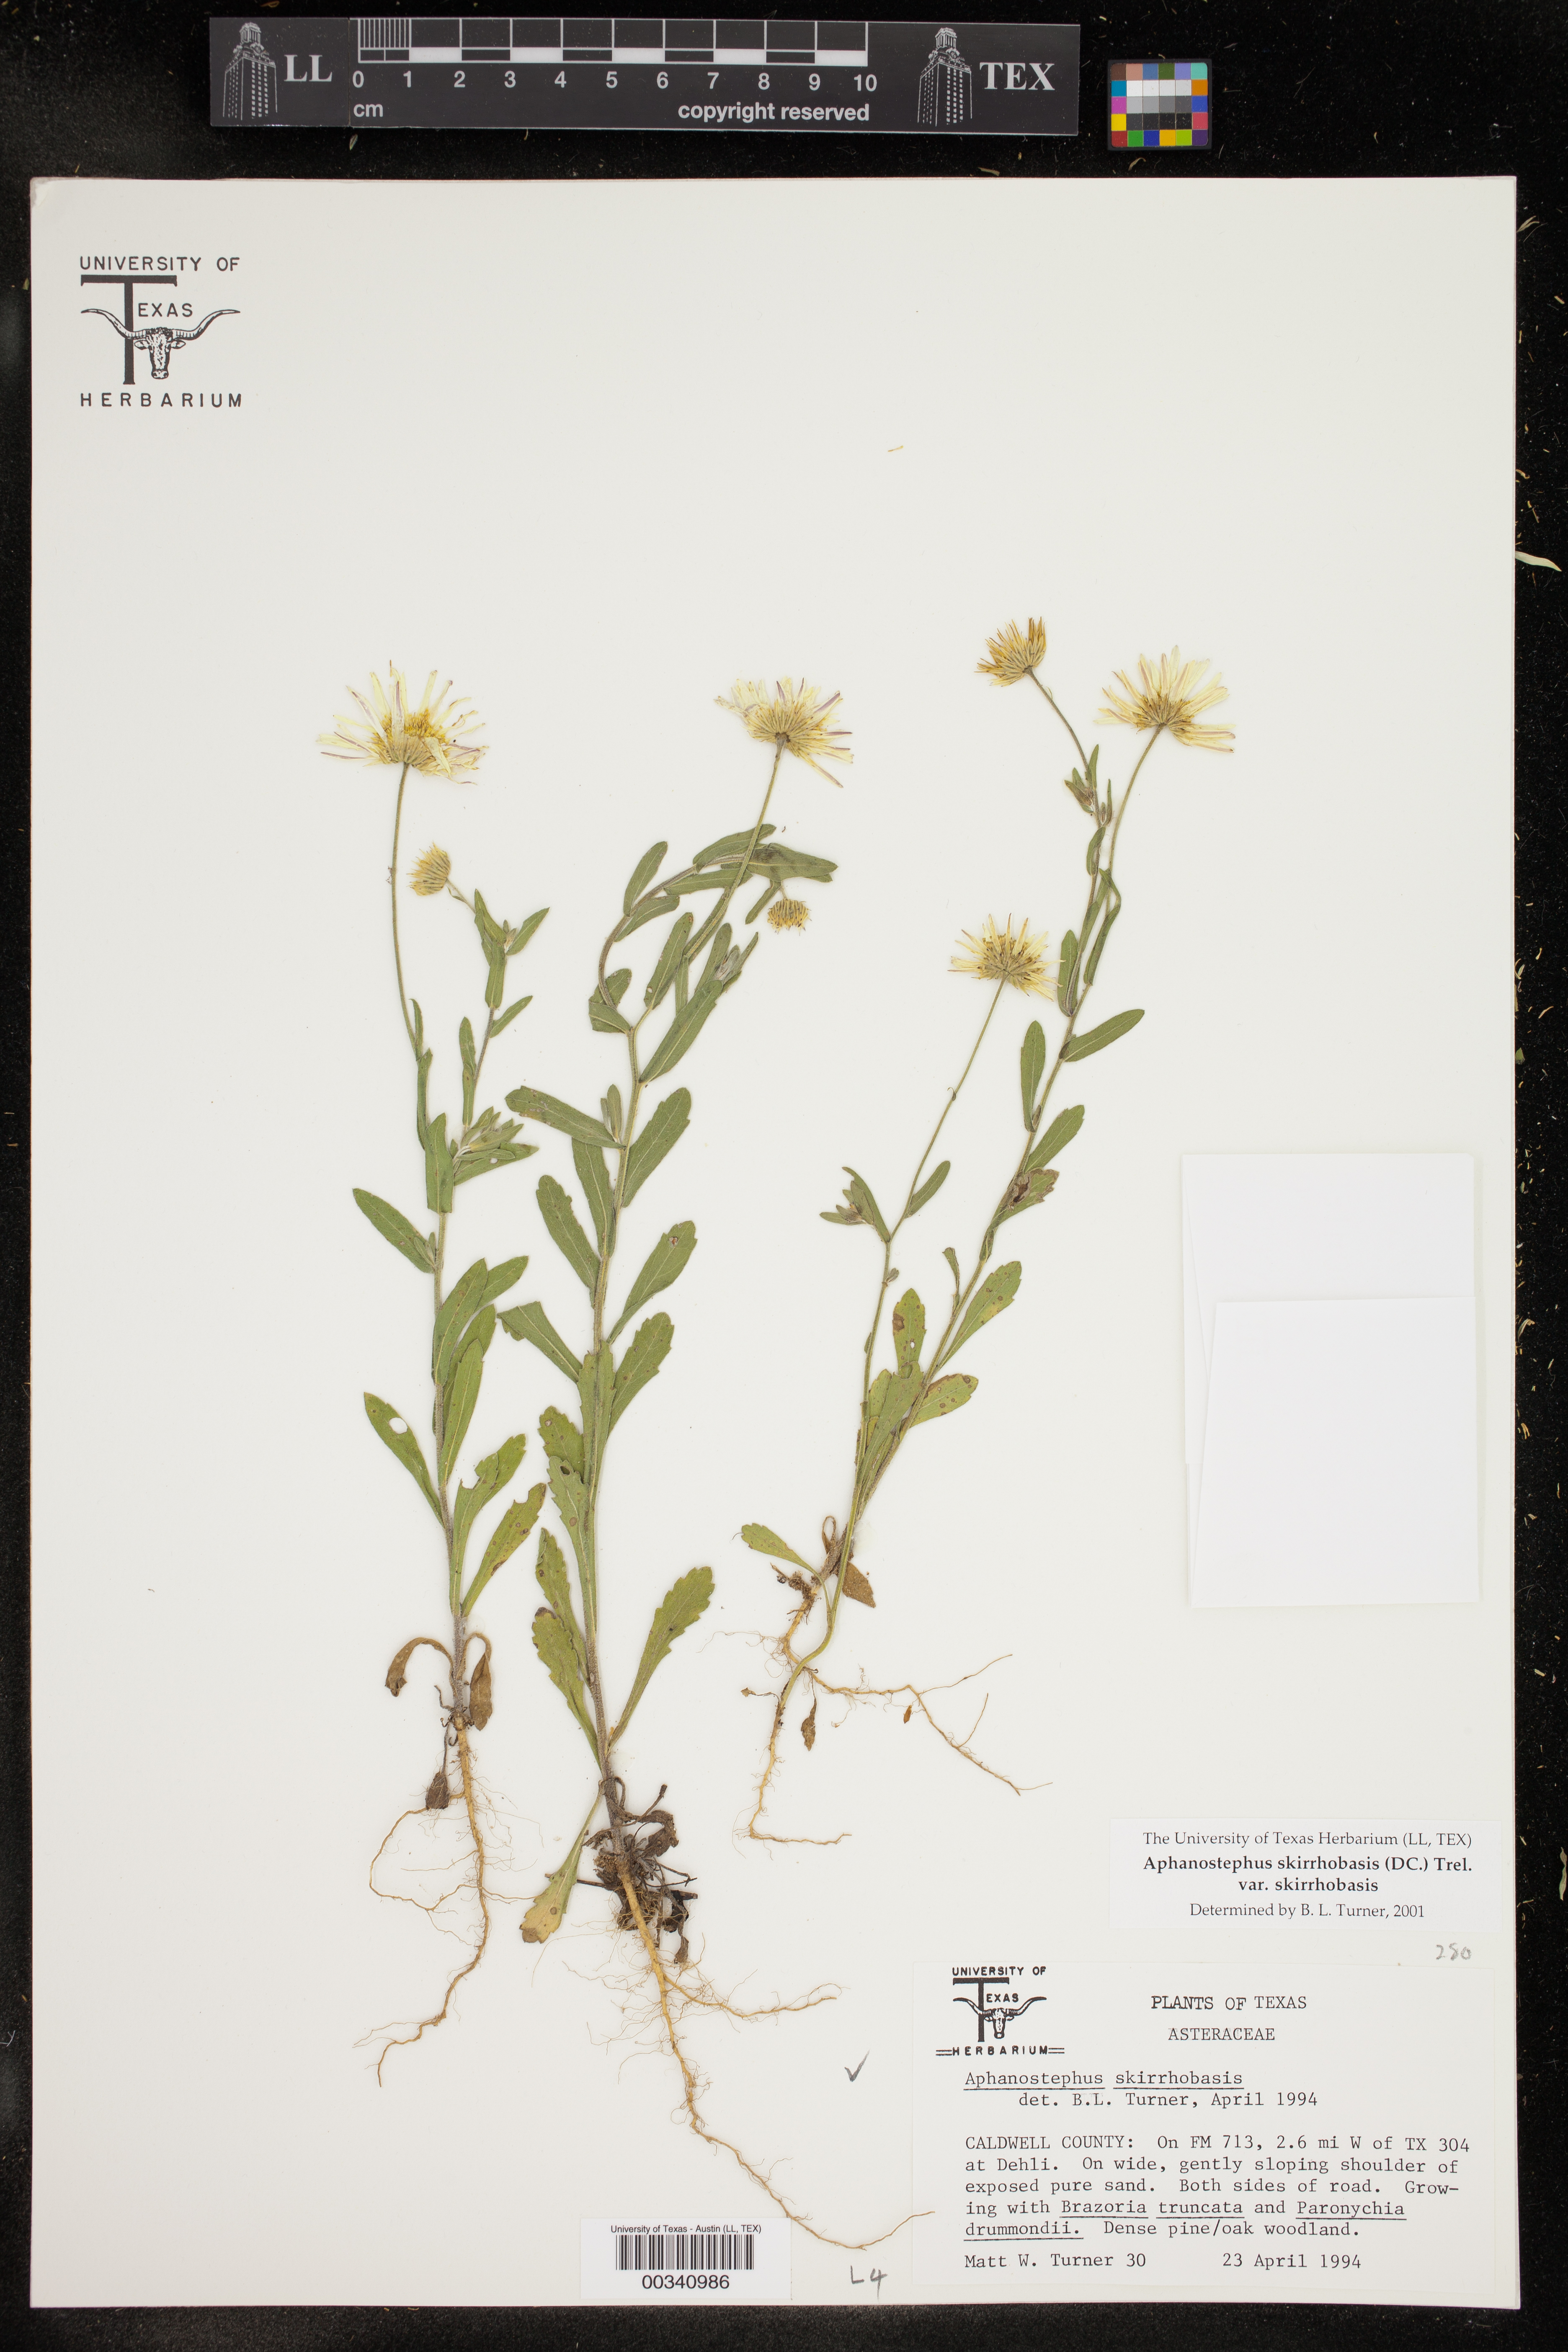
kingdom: Plantae
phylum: Tracheophyta
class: Magnoliopsida
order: Asterales
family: Asteraceae
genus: Aphanostephus
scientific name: Aphanostephus skirrhobasis
